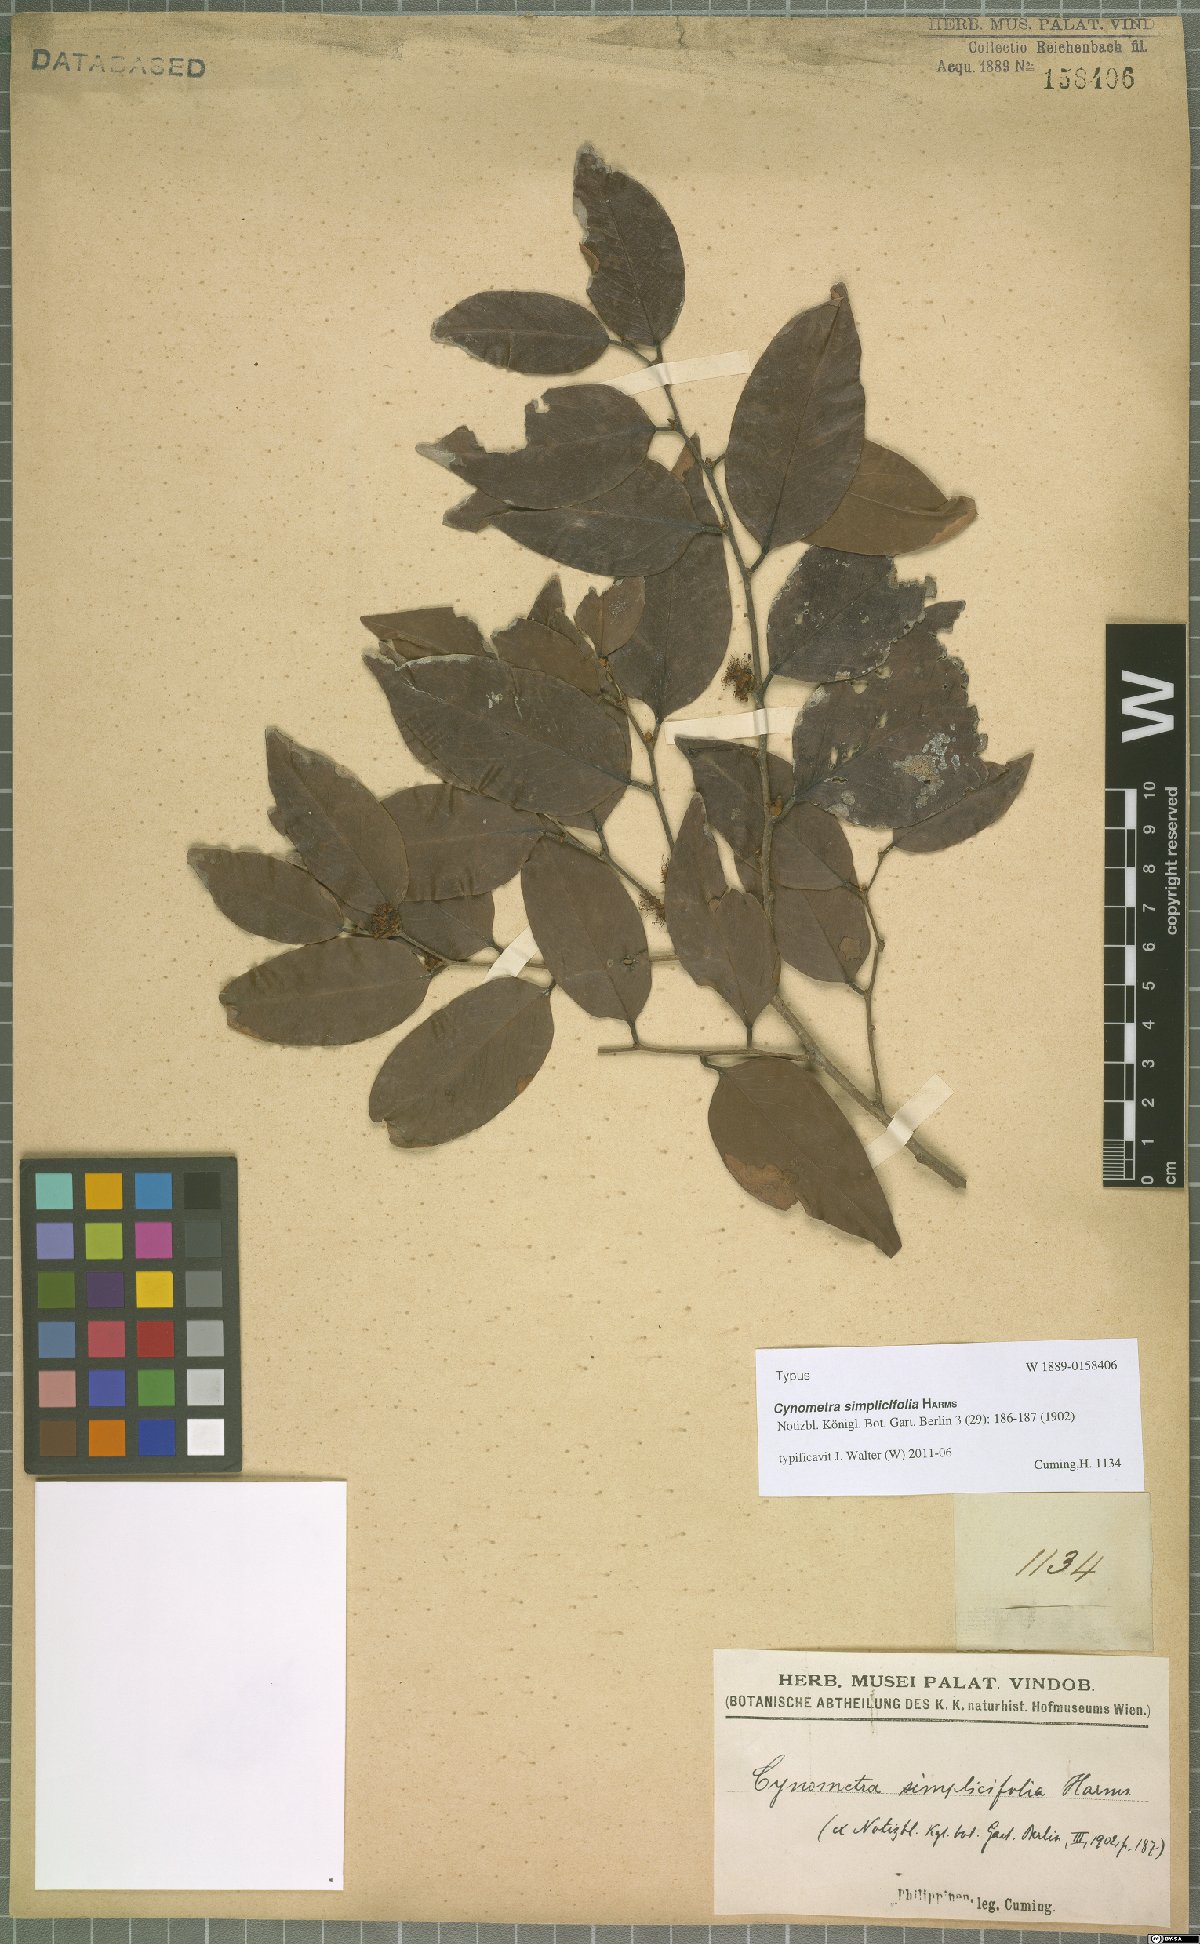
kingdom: Plantae
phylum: Tracheophyta
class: Magnoliopsida
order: Fabales
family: Fabaceae
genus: Cynometra
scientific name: Cynometra simplicifolia
